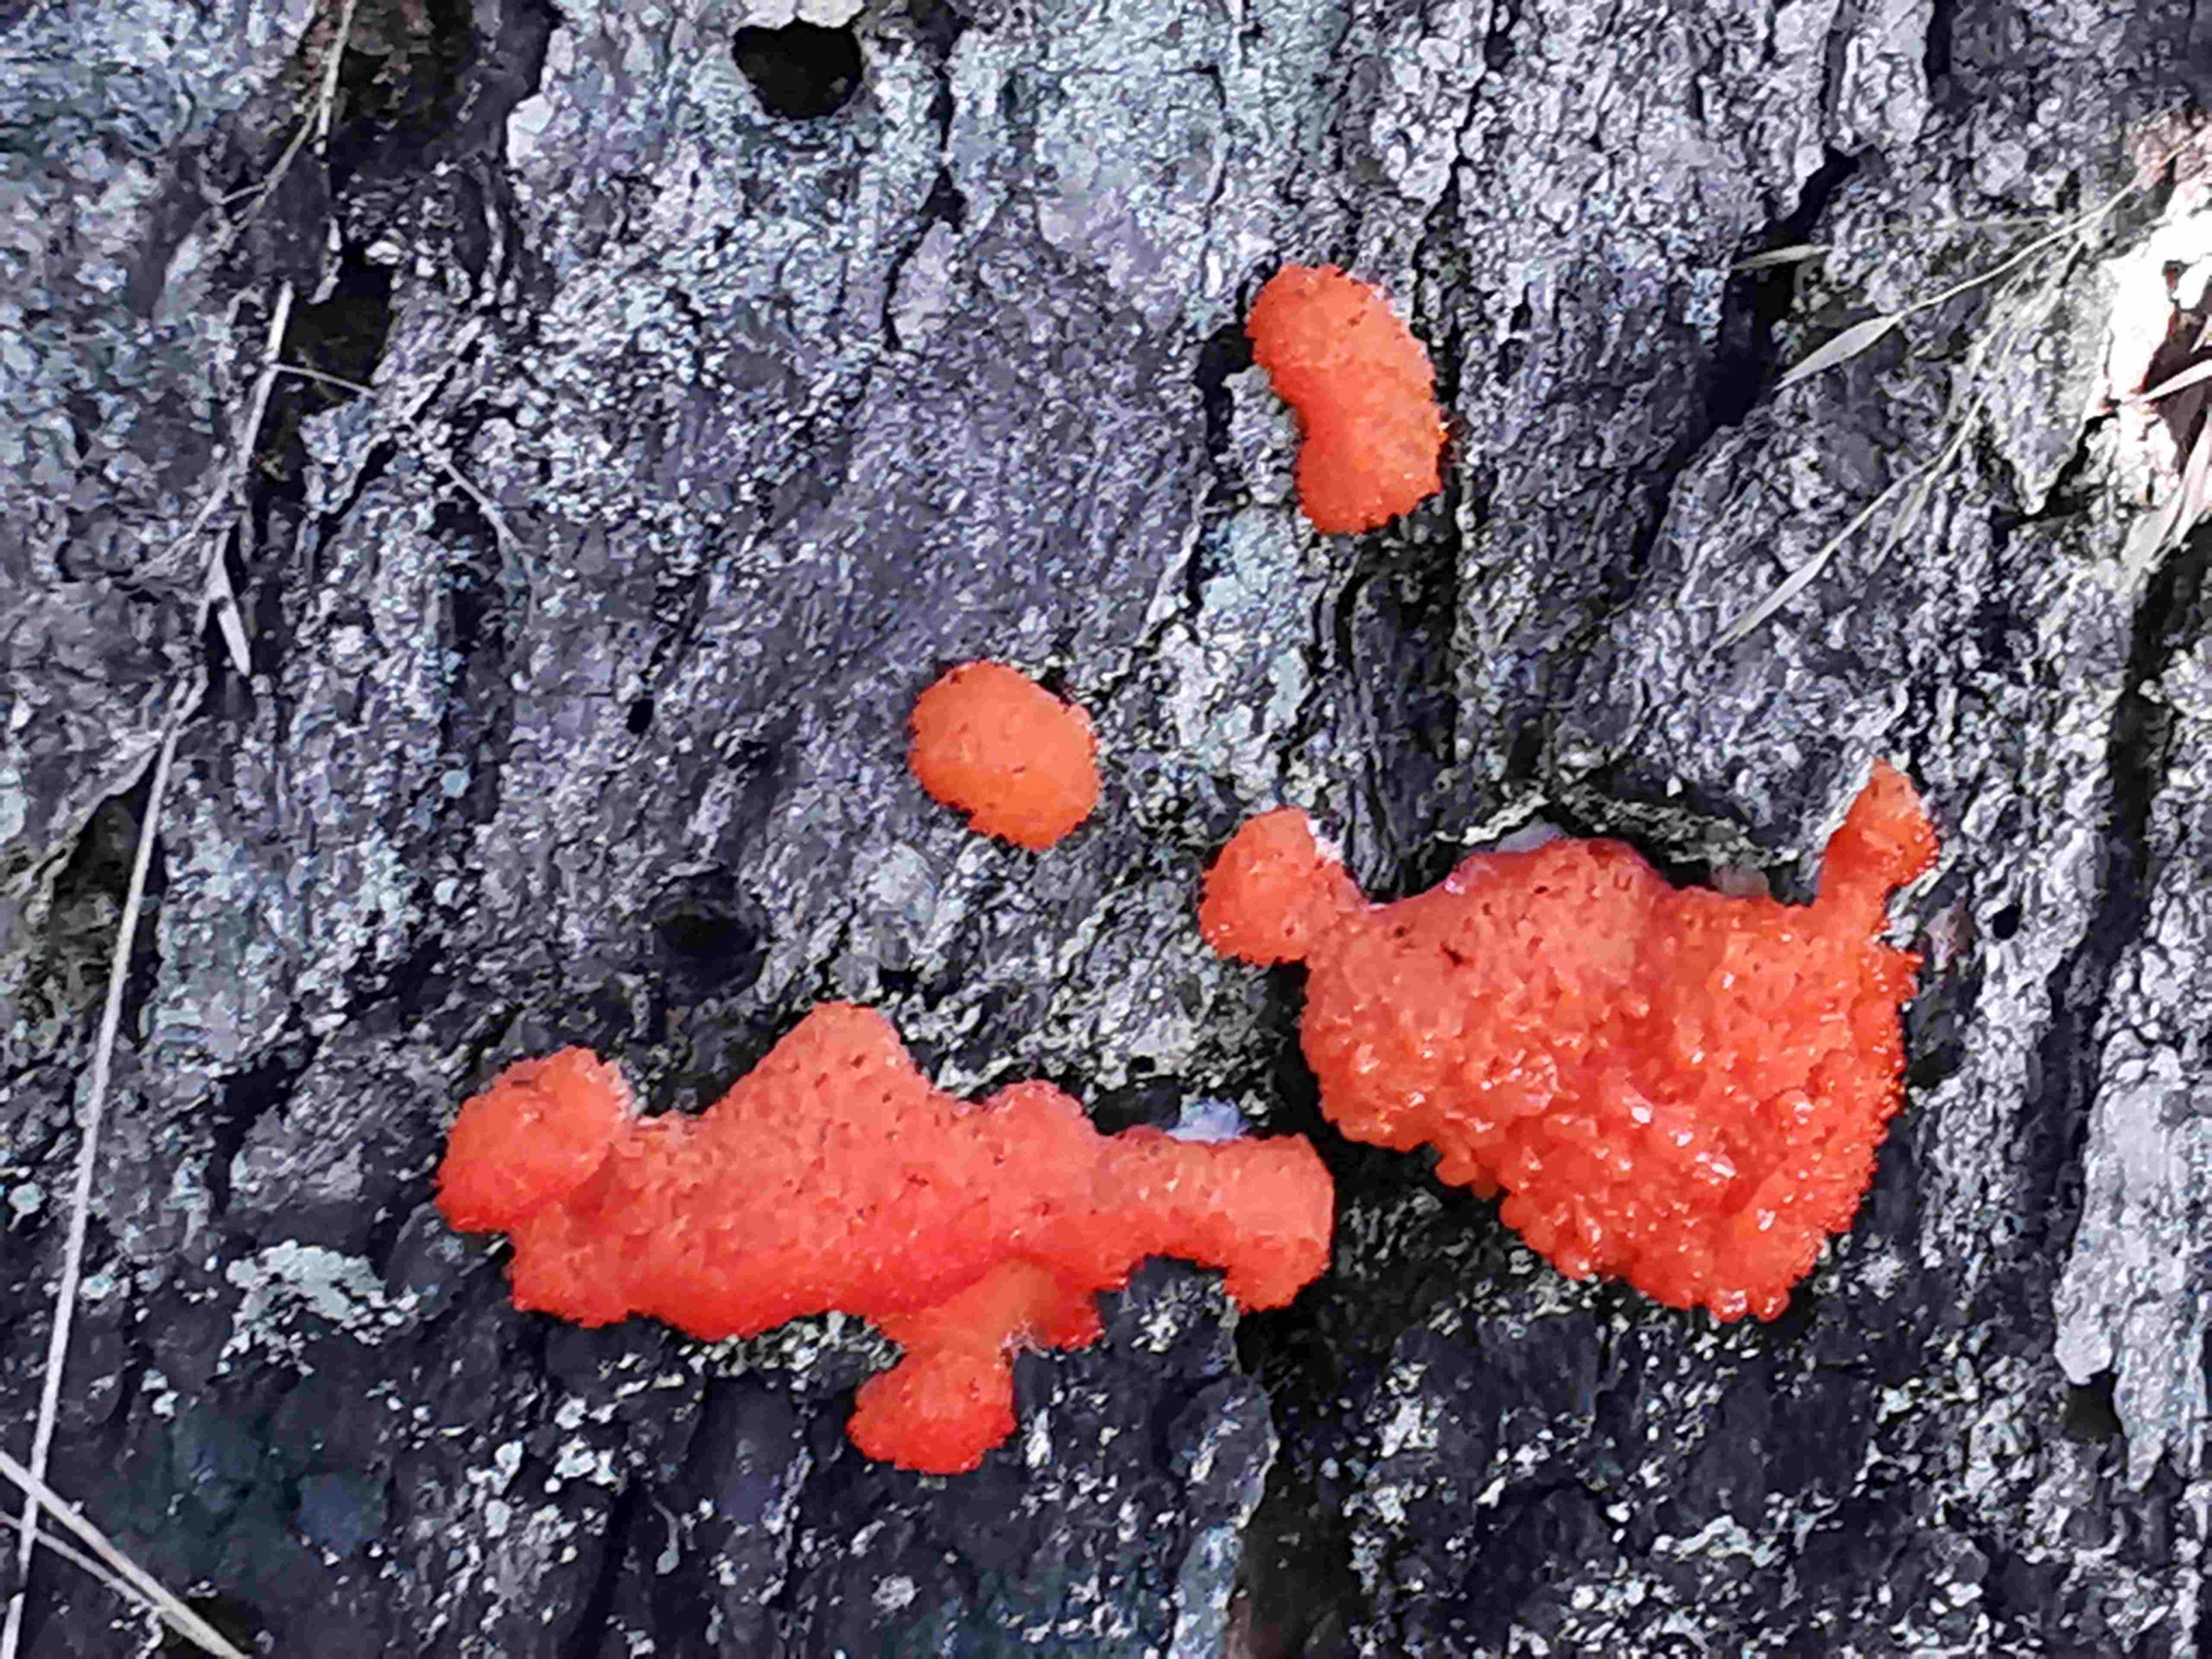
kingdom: Protozoa
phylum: Mycetozoa
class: Myxomycetes
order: Cribrariales
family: Tubiferaceae
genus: Tubifera
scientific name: Tubifera ferruginosa
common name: kanel-støvrør
